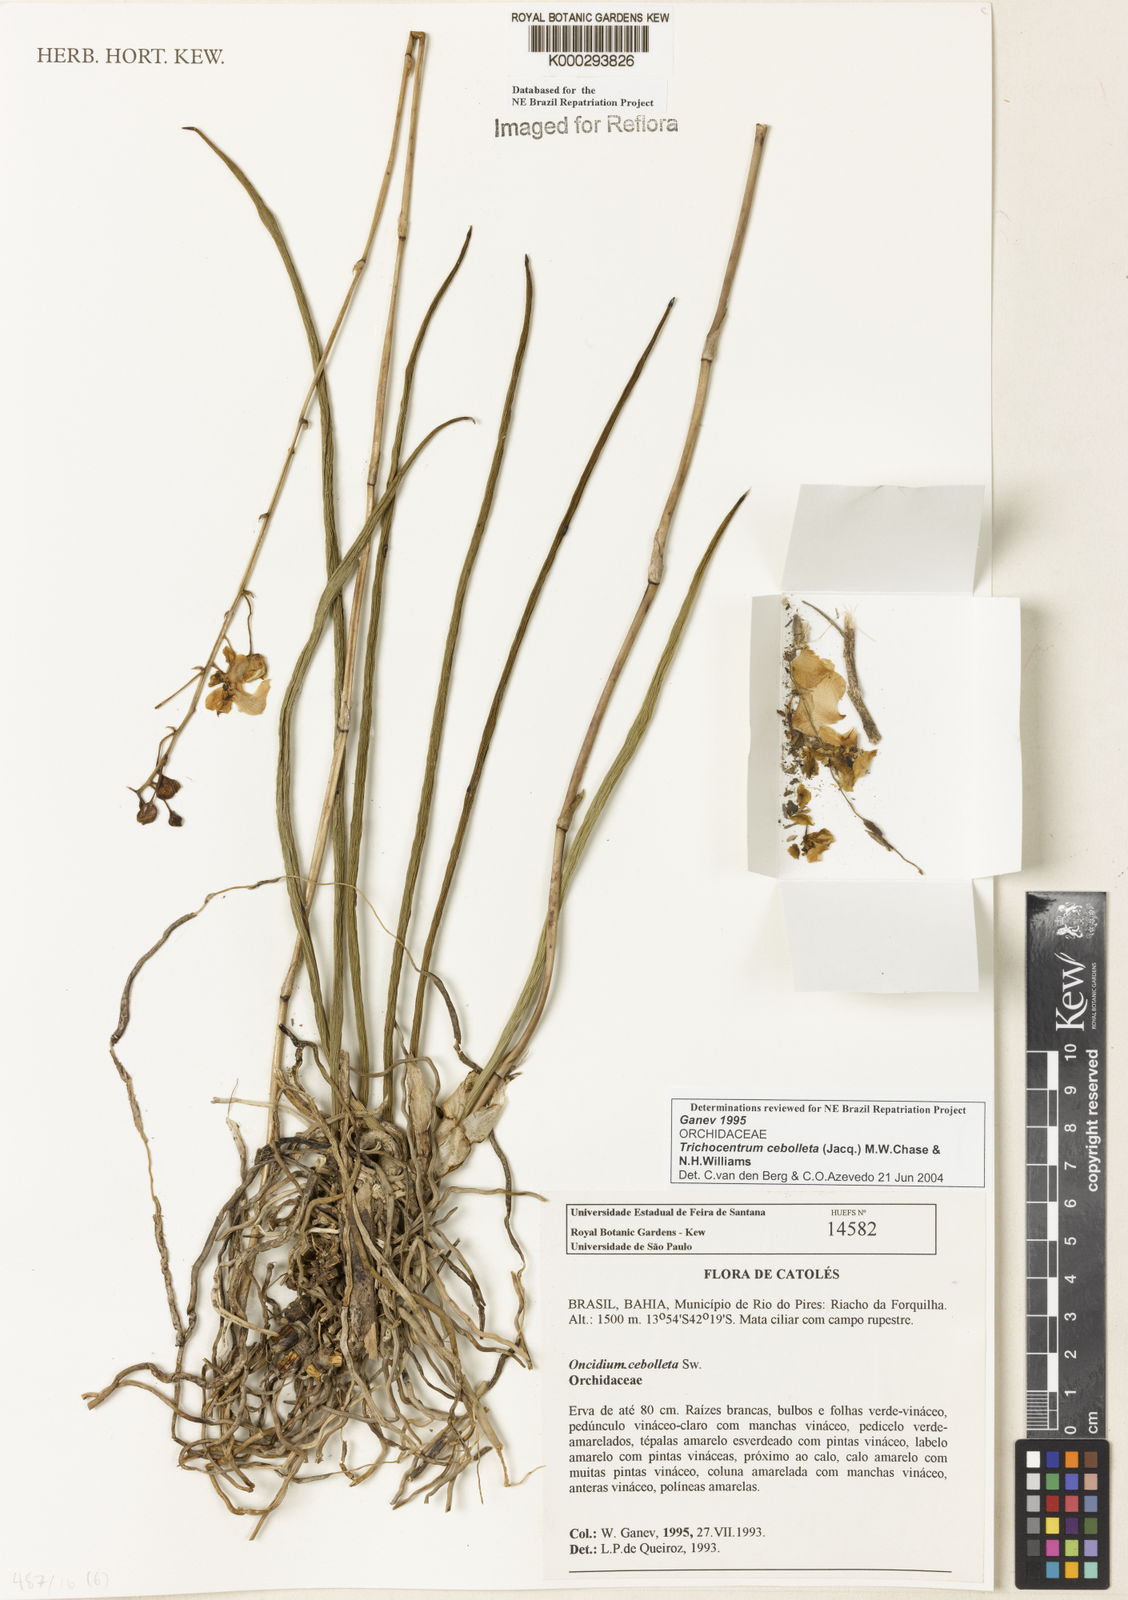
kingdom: Plantae
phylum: Tracheophyta
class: Liliopsida
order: Asparagales
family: Orchidaceae
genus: Trichocentrum
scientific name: Trichocentrum cebolleta
